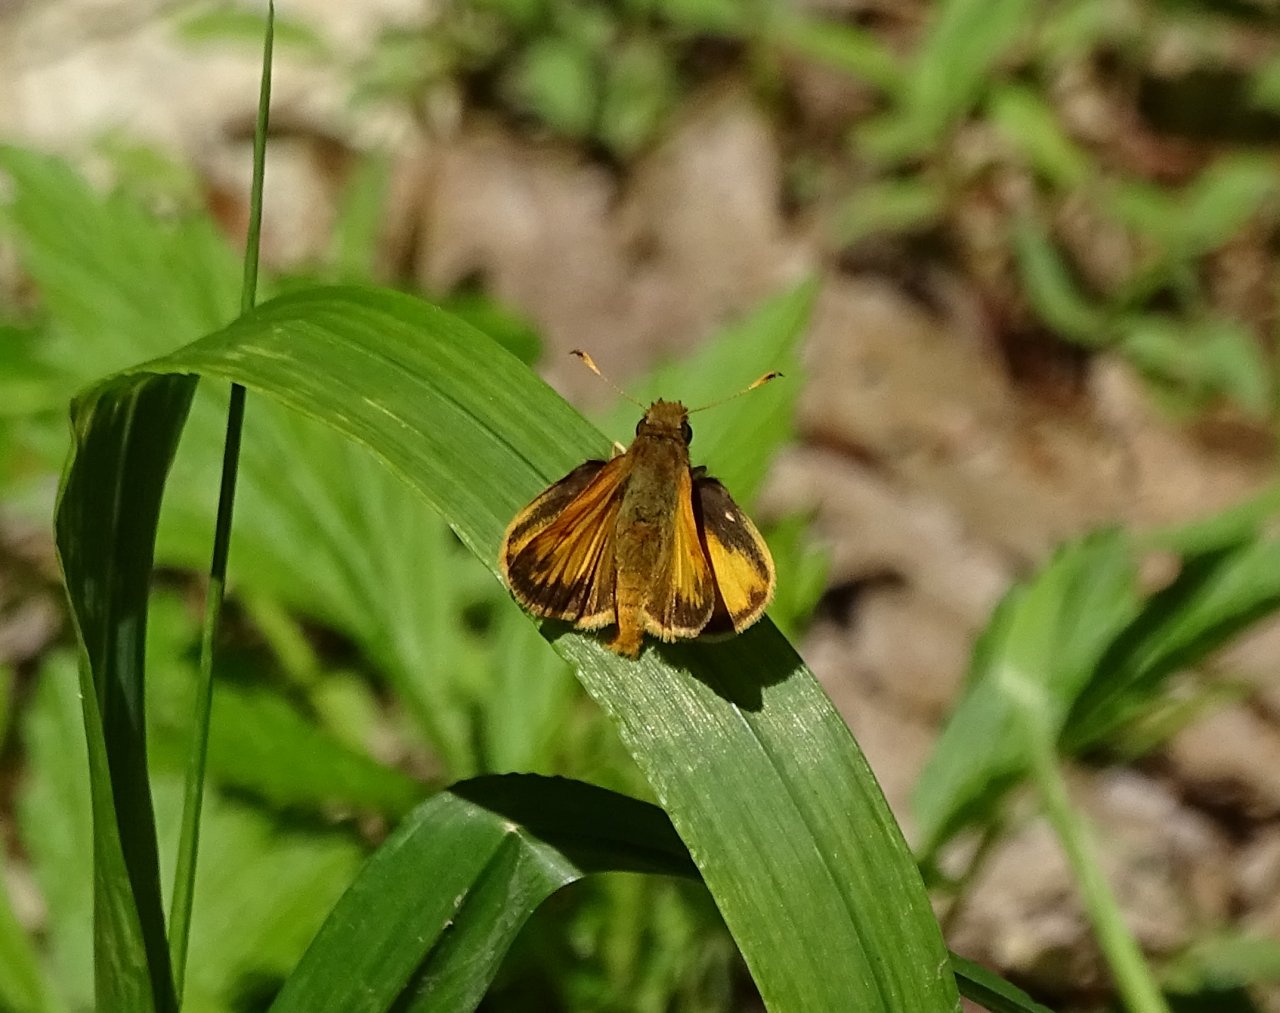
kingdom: Animalia
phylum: Arthropoda
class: Insecta
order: Lepidoptera
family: Hesperiidae
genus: Lon
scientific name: Lon zabulon
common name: Zabulon Skipper
